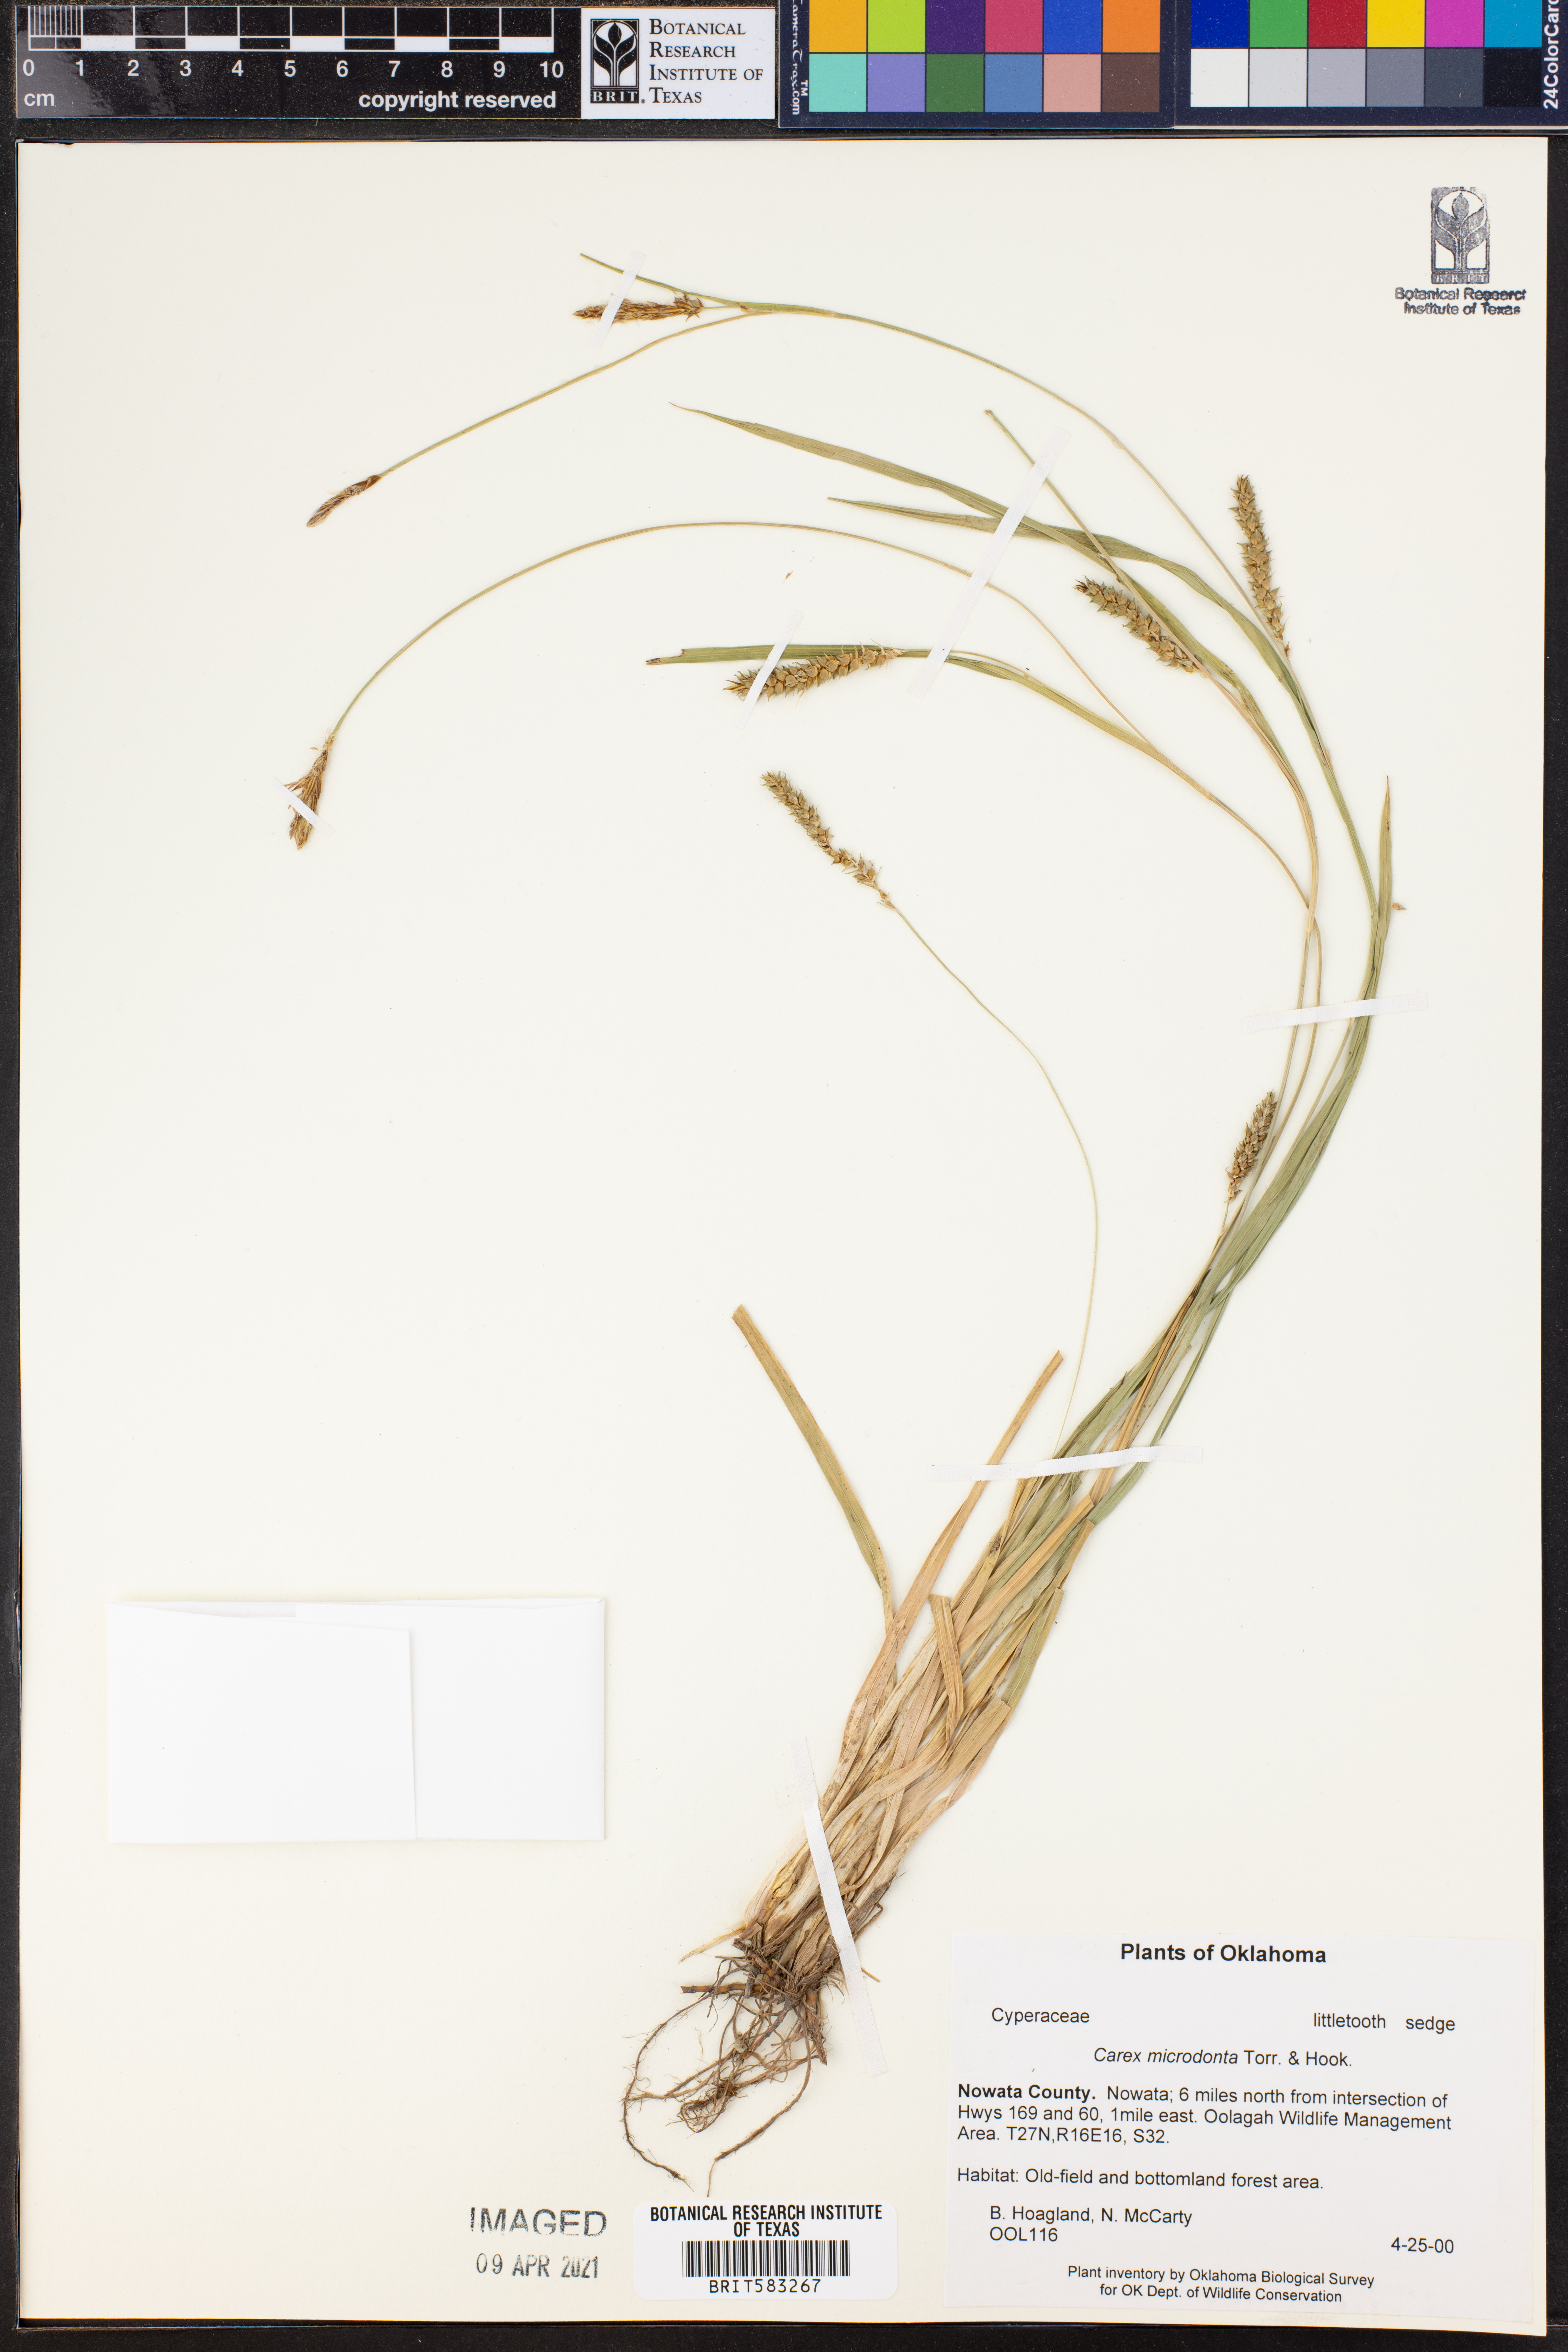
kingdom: Plantae
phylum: Tracheophyta
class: Liliopsida
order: Poales
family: Cyperaceae
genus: Carex
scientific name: Carex microdonta
